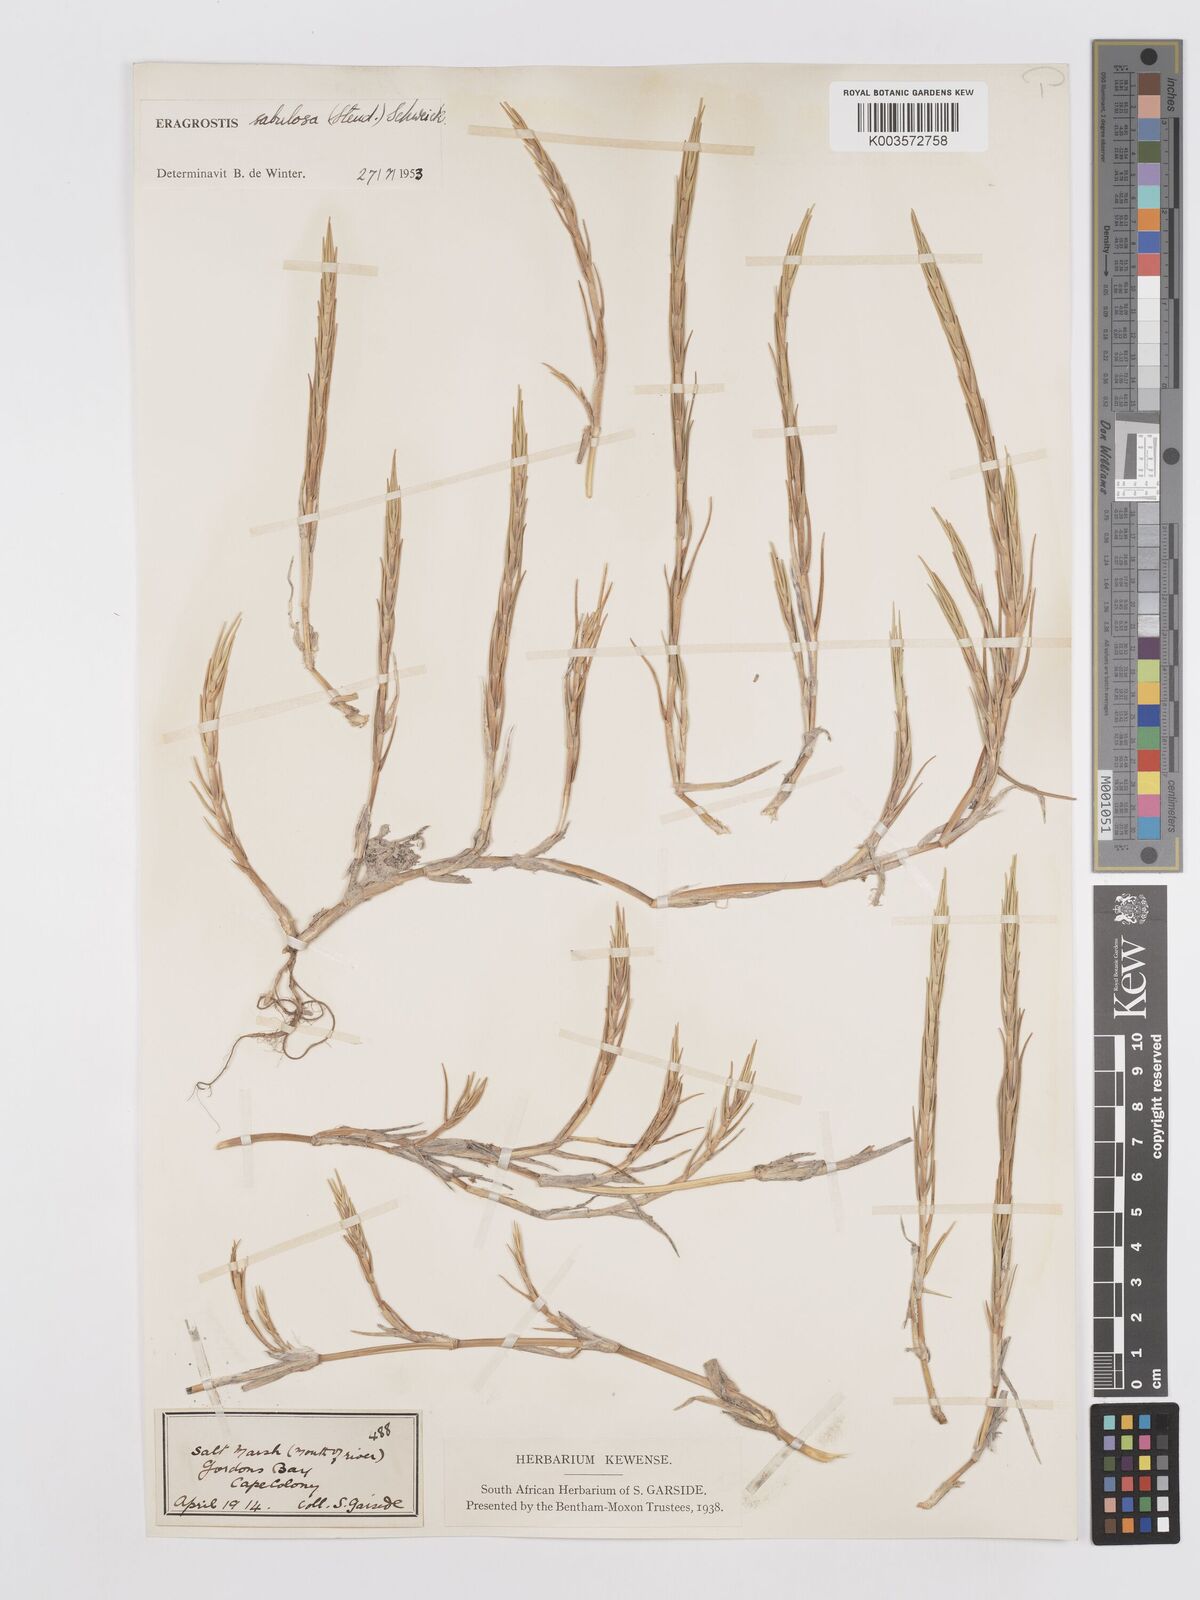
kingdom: Plantae
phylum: Tracheophyta
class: Liliopsida
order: Poales
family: Poaceae
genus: Eragrostis
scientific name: Eragrostis sabulosa
